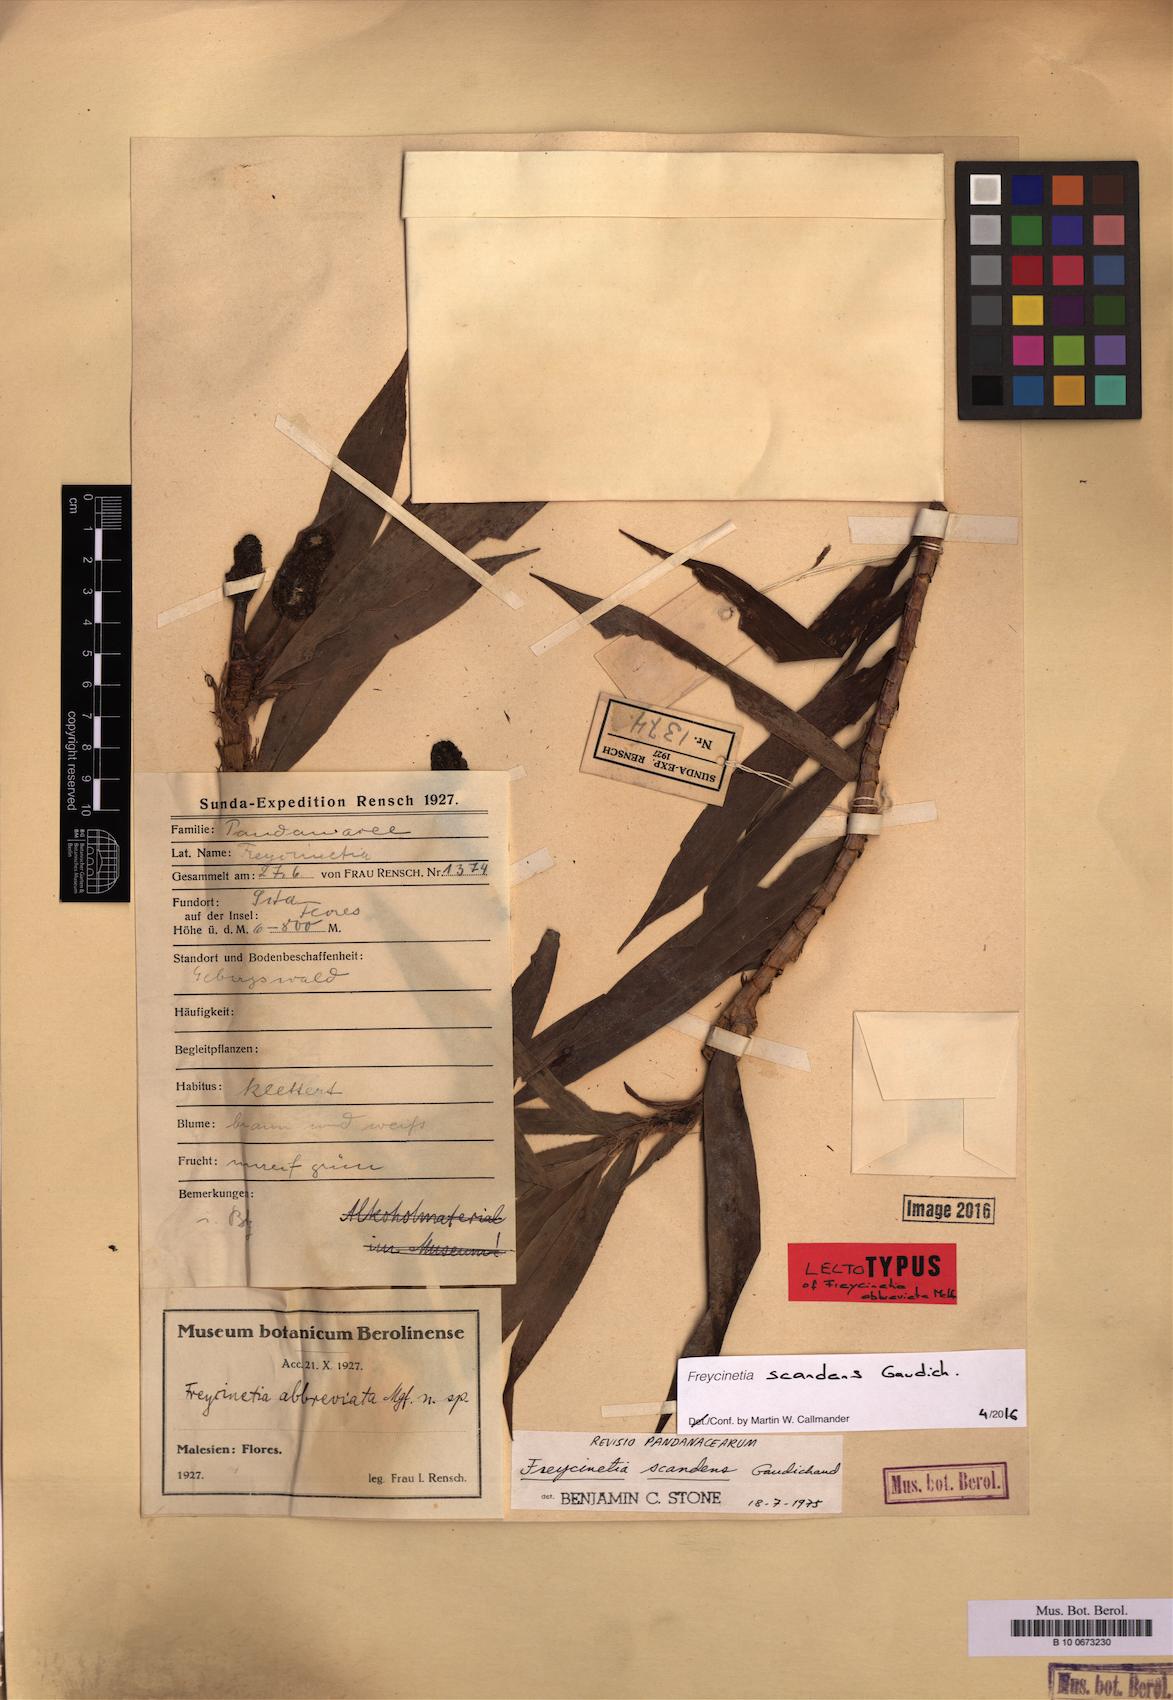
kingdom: Plantae
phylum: Tracheophyta
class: Liliopsida
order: Pandanales
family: Pandanaceae
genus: Freycinetia
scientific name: Freycinetia scandens
